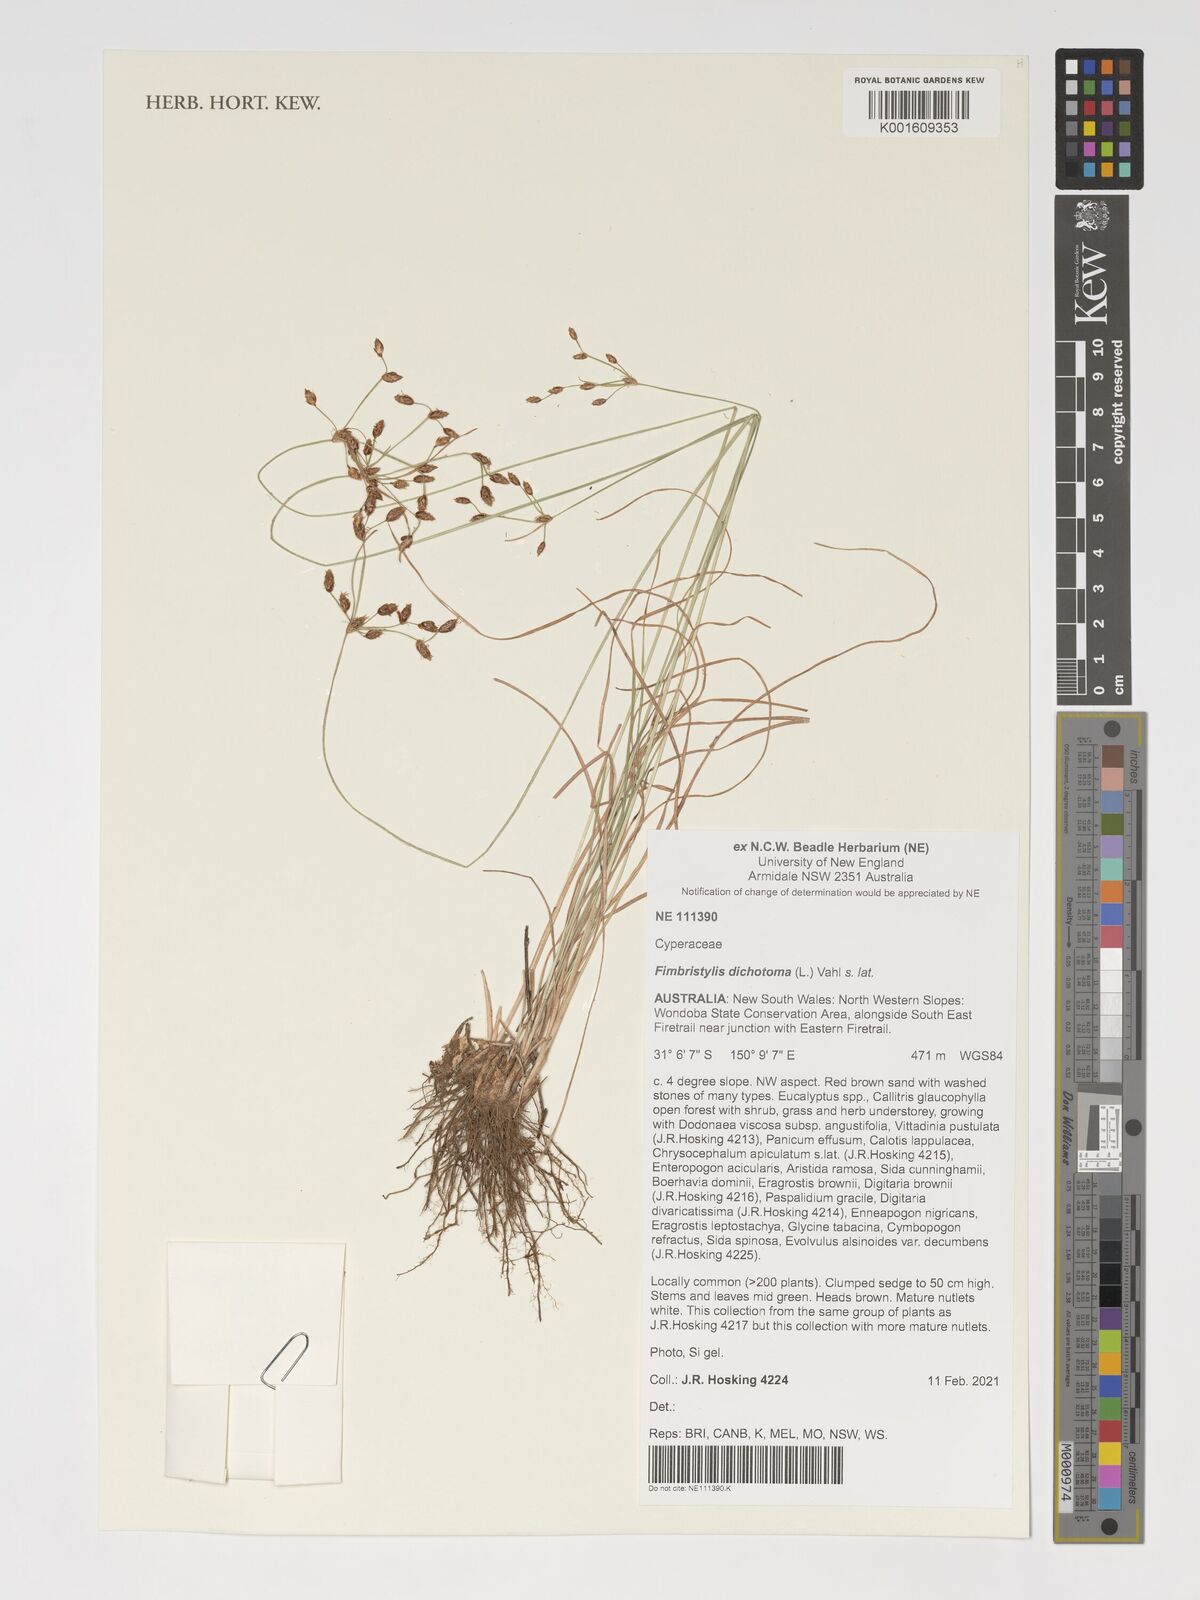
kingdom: Plantae
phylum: Tracheophyta
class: Liliopsida
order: Poales
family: Cyperaceae
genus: Fimbristylis
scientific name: Fimbristylis dichotoma
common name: Forked fimbry
